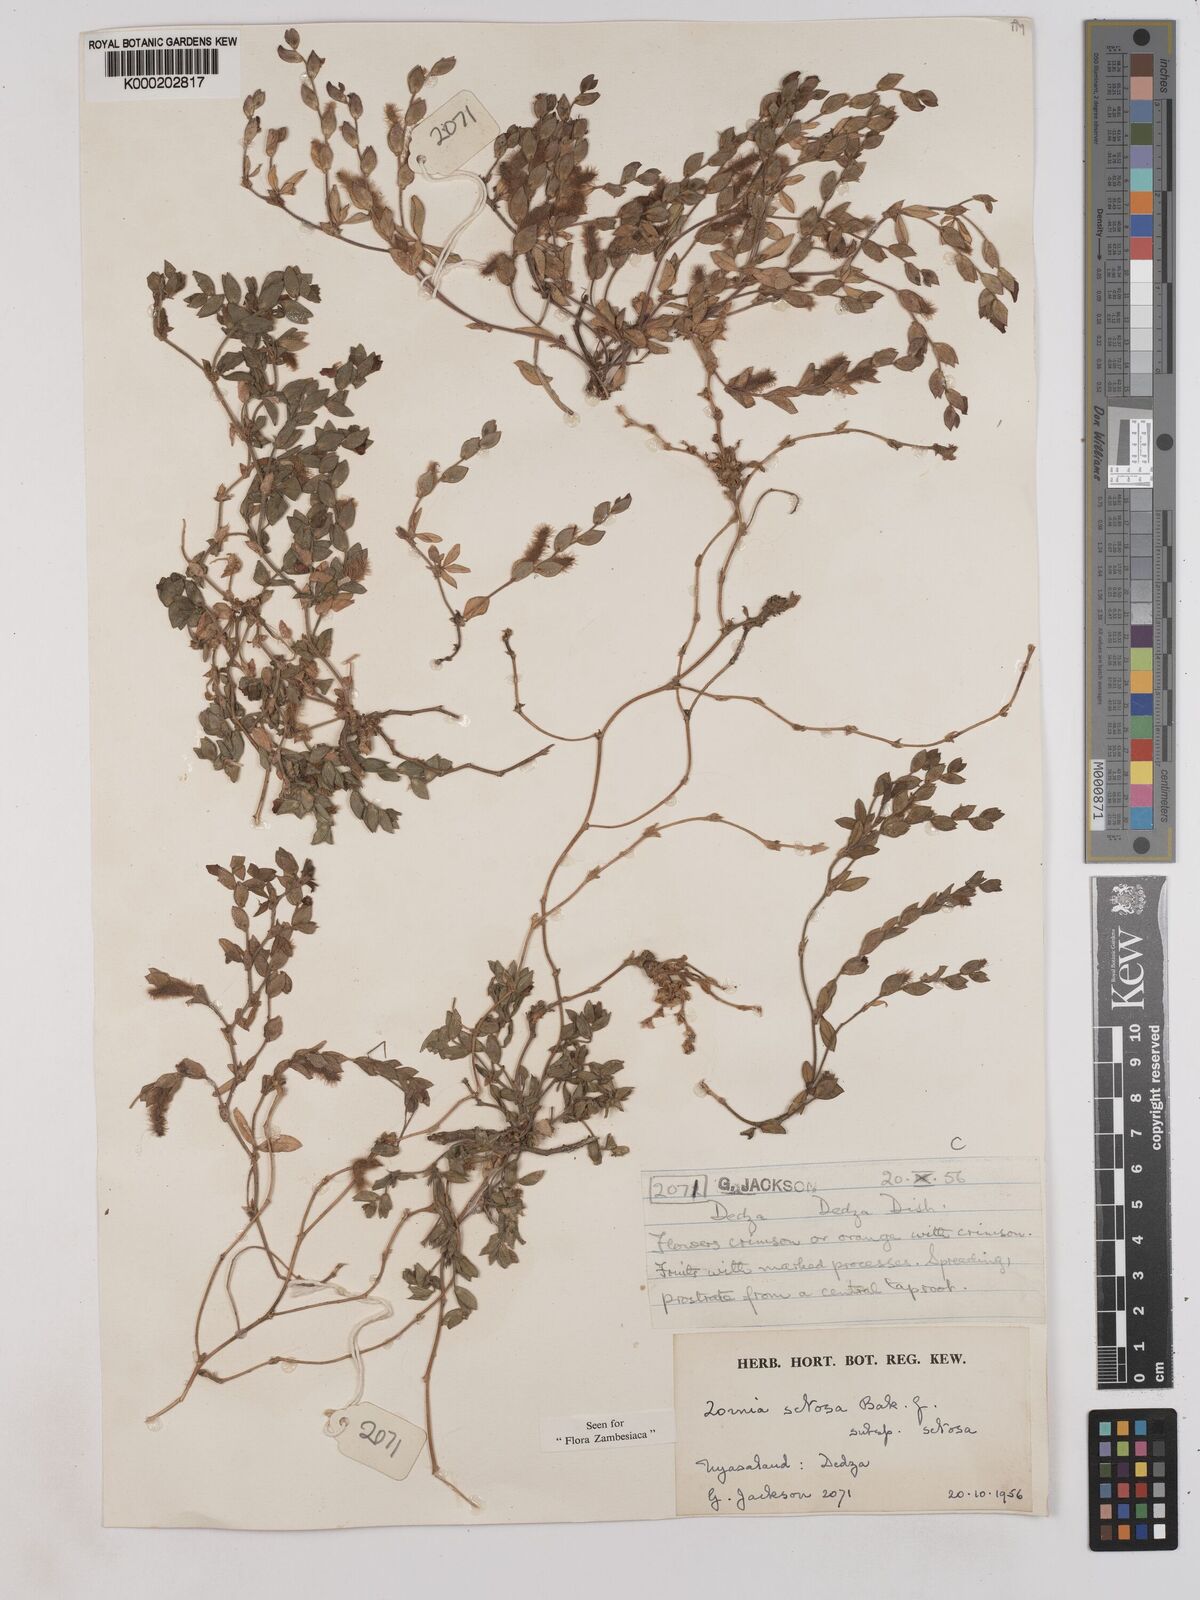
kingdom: Plantae
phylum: Tracheophyta
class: Magnoliopsida
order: Fabales
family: Fabaceae
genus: Zornia
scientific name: Zornia setosa
